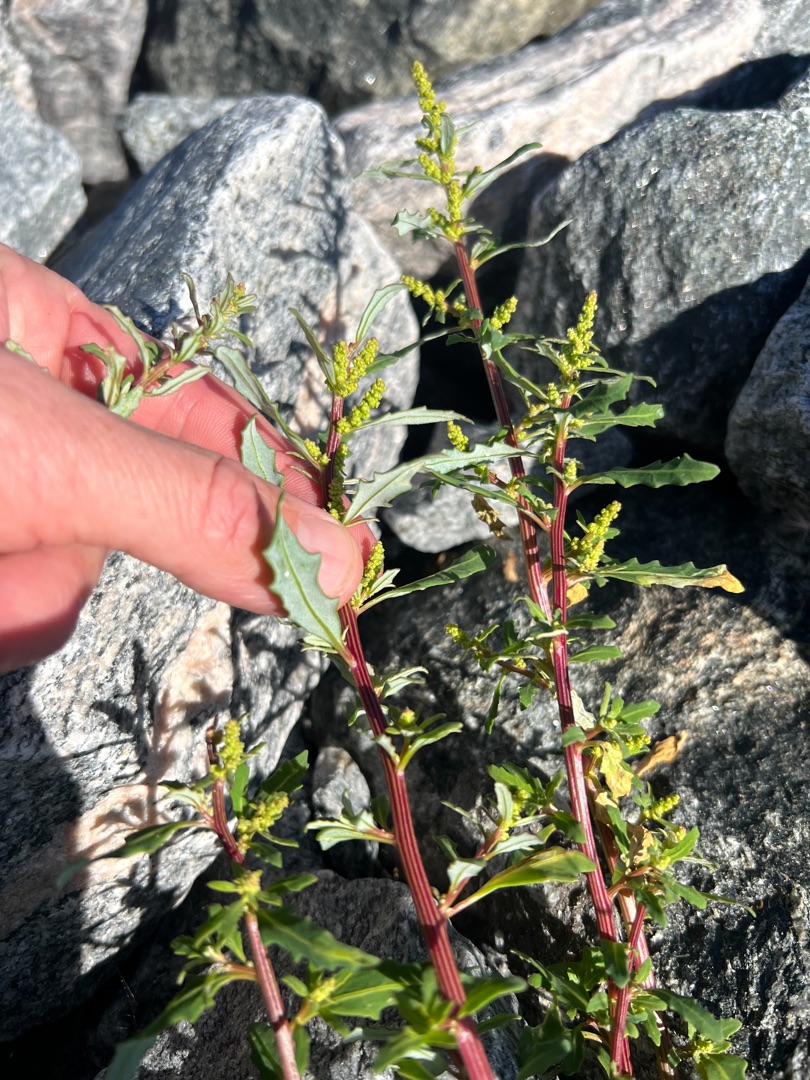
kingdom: Plantae
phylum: Tracheophyta
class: Magnoliopsida
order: Caryophyllales
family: Amaranthaceae
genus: Oxybasis
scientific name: Oxybasis glauca
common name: Blågrøn gåsefod
